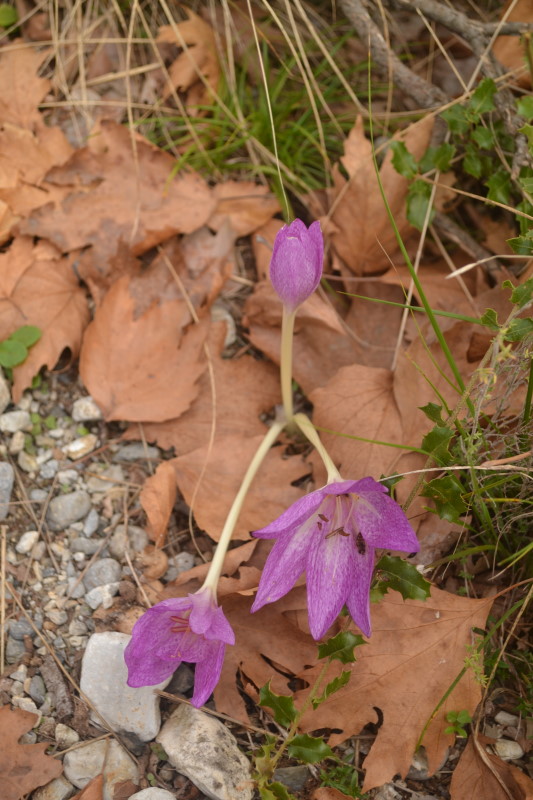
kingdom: Plantae
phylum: Tracheophyta
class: Liliopsida
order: Liliales
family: Colchicaceae
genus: Colchicum
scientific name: Colchicum cupanii
